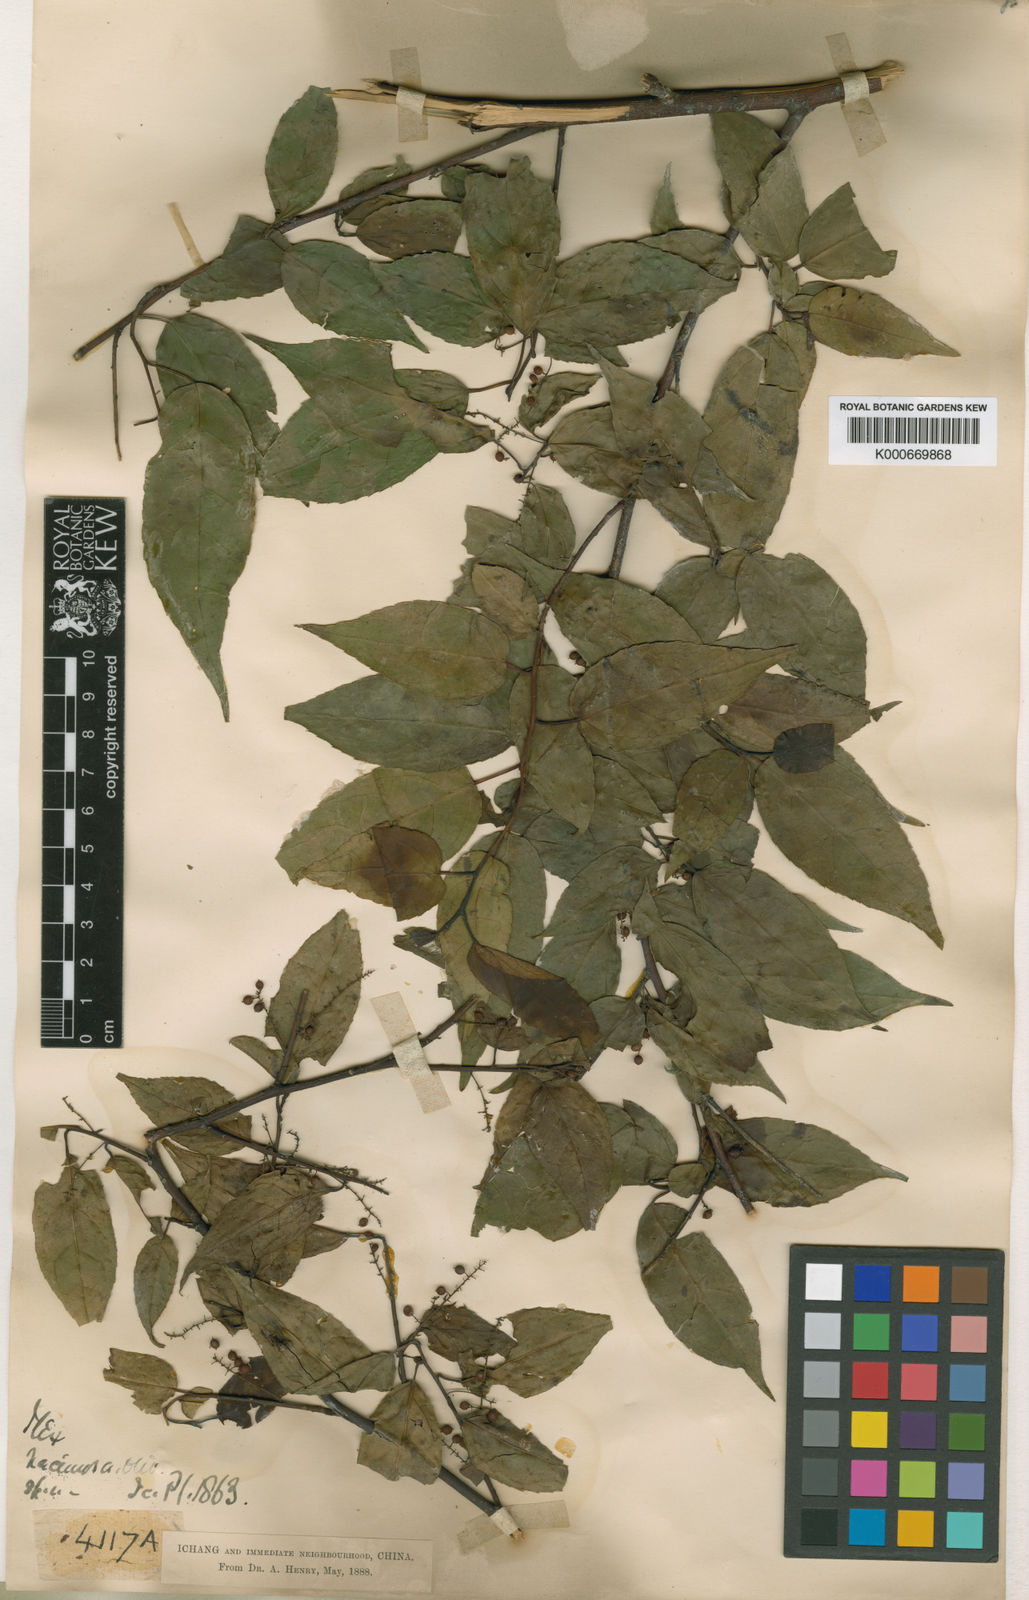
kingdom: Plantae
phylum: Tracheophyta
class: Magnoliopsida
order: Huerteales
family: Dipentodontaceae
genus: Perrottetia
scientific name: Perrottetia racemosa
